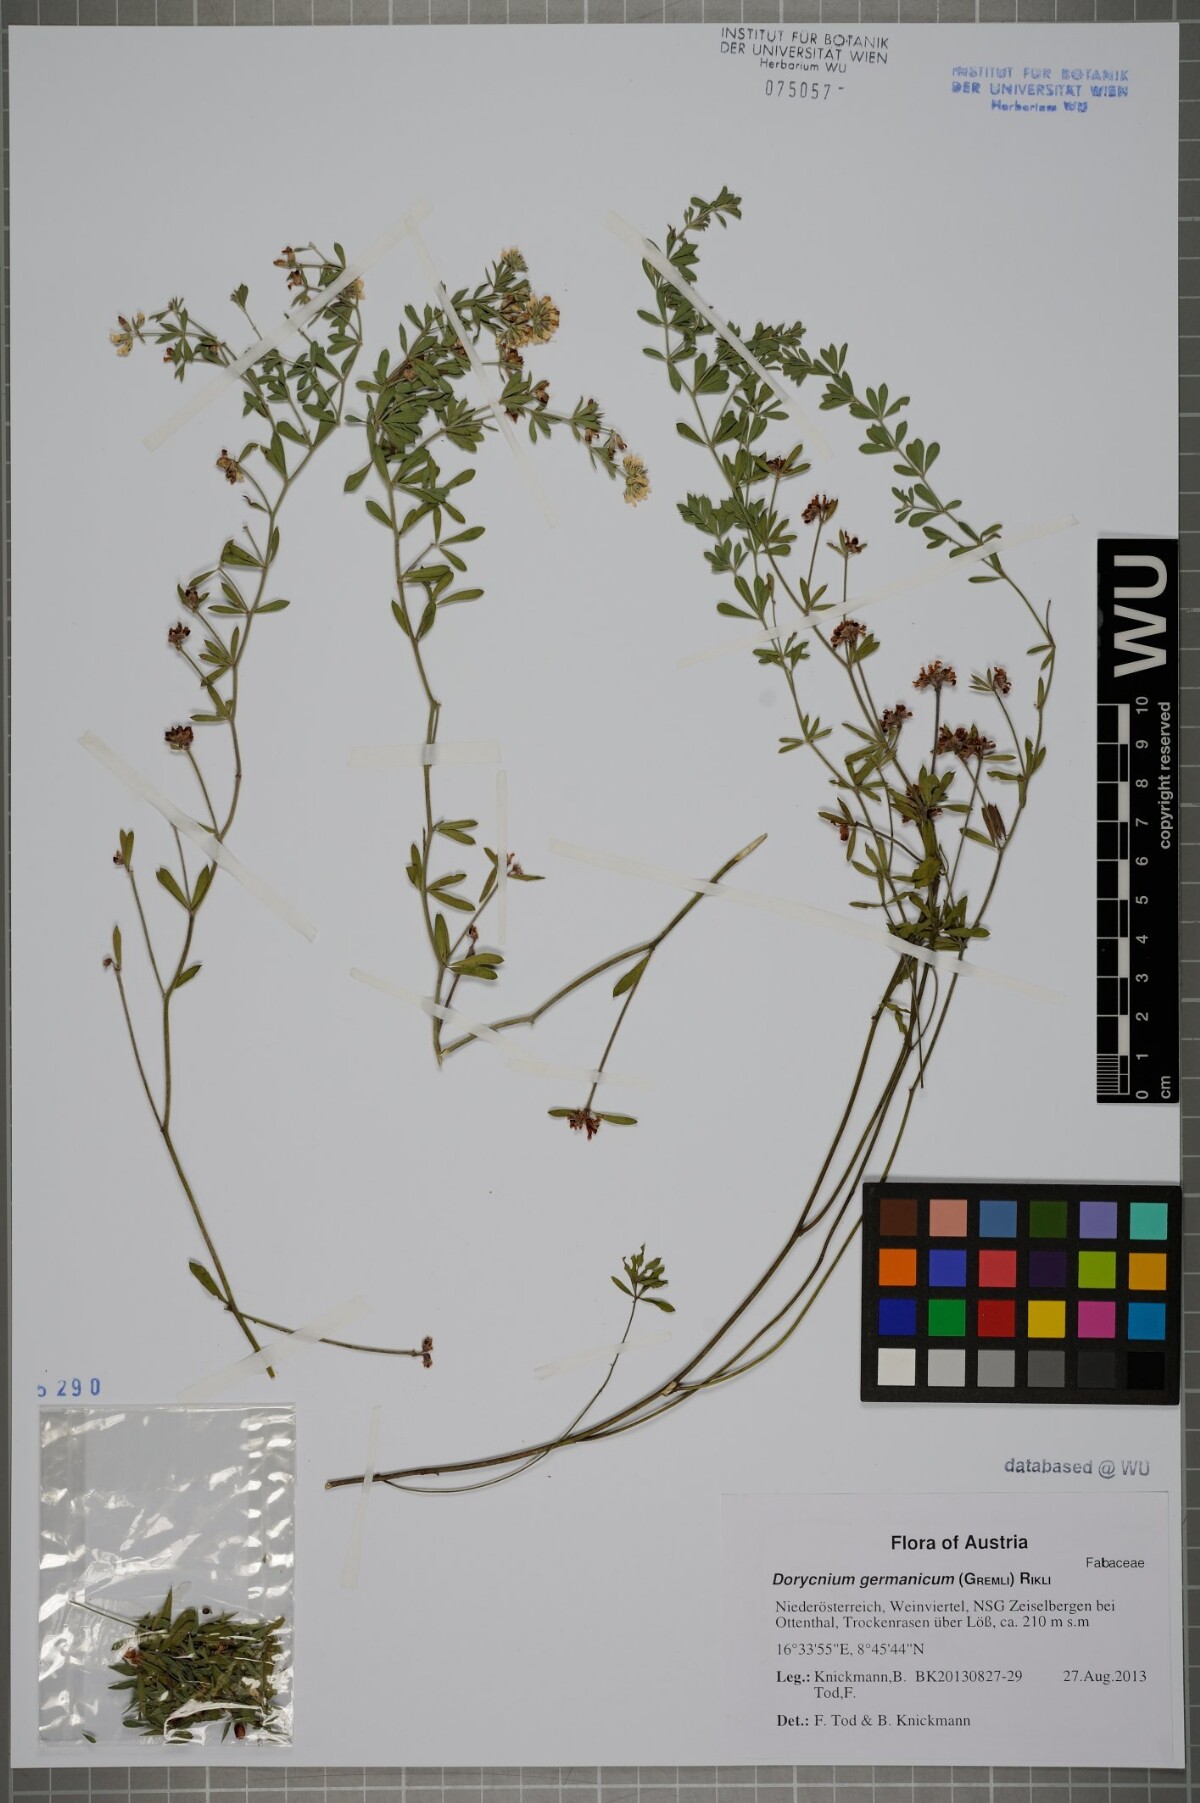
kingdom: Plantae
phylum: Tracheophyta
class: Magnoliopsida
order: Fabales
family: Fabaceae
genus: Lotus
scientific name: Lotus germanicus
